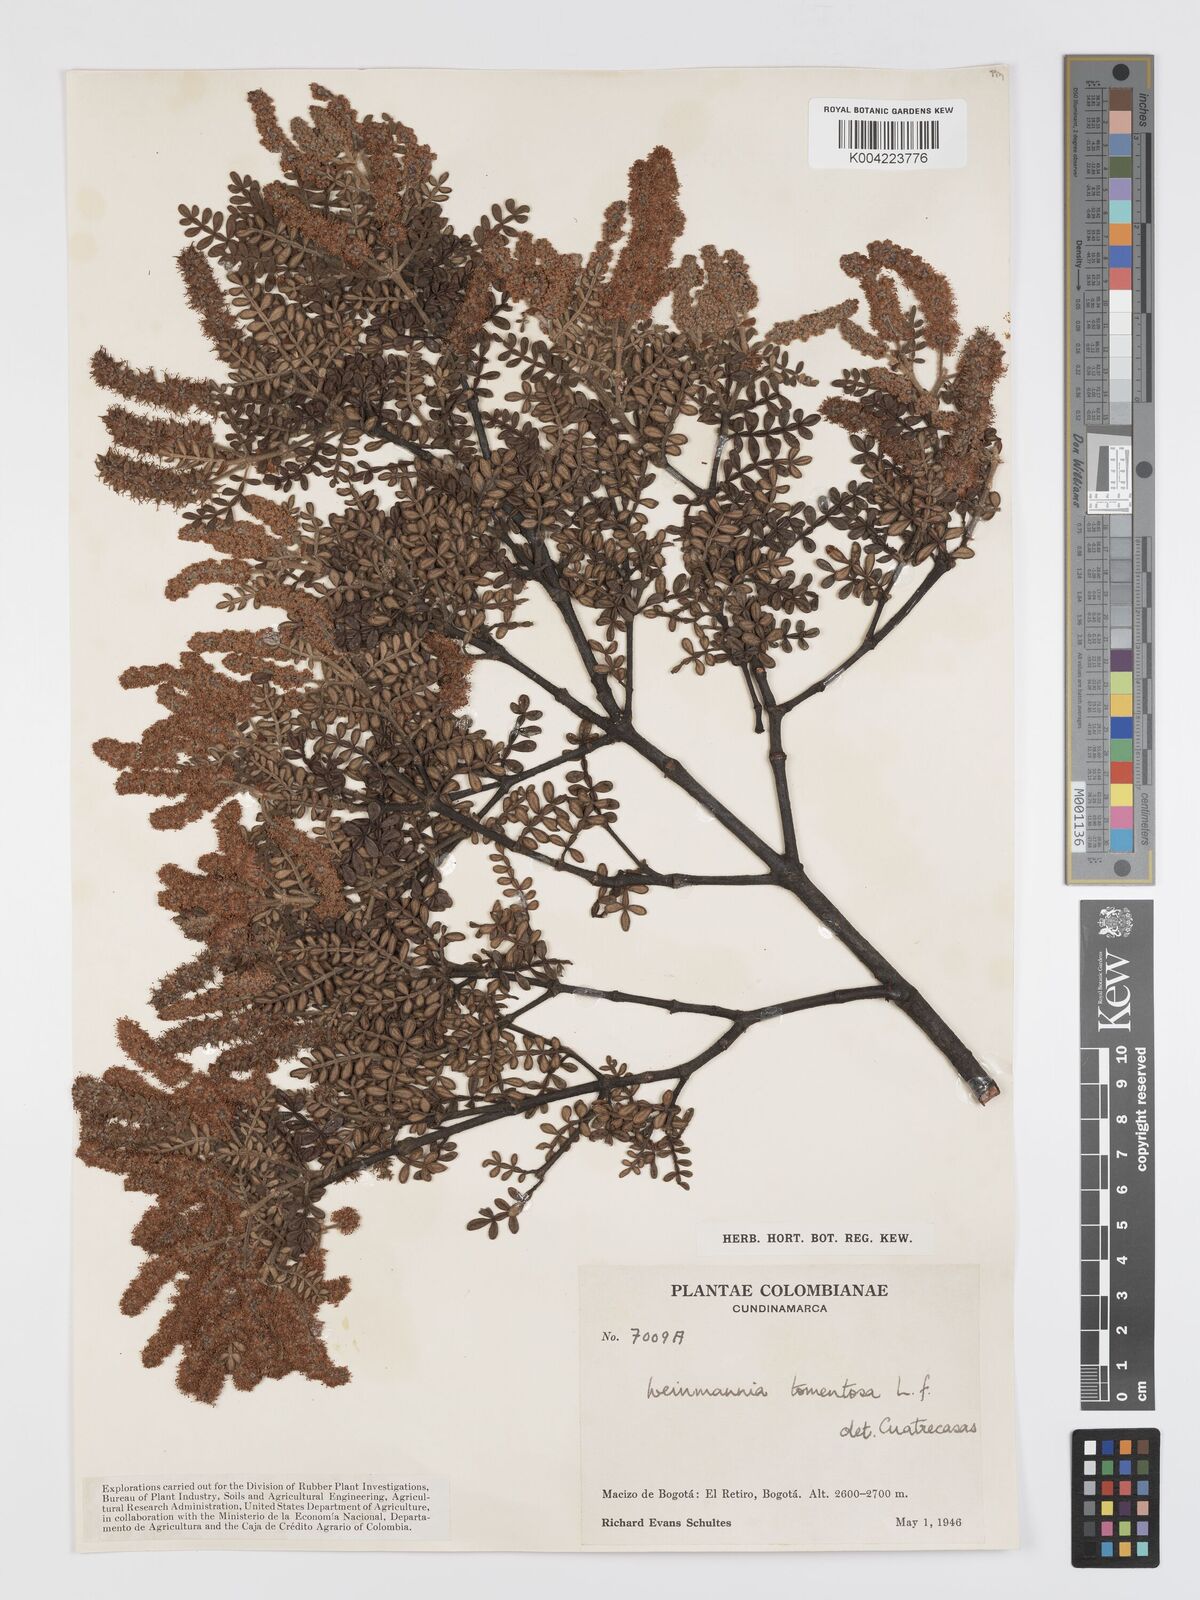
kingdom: Plantae
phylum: Tracheophyta
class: Magnoliopsida
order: Oxalidales
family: Cunoniaceae
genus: Weinmannia
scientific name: Weinmannia tomentosa
